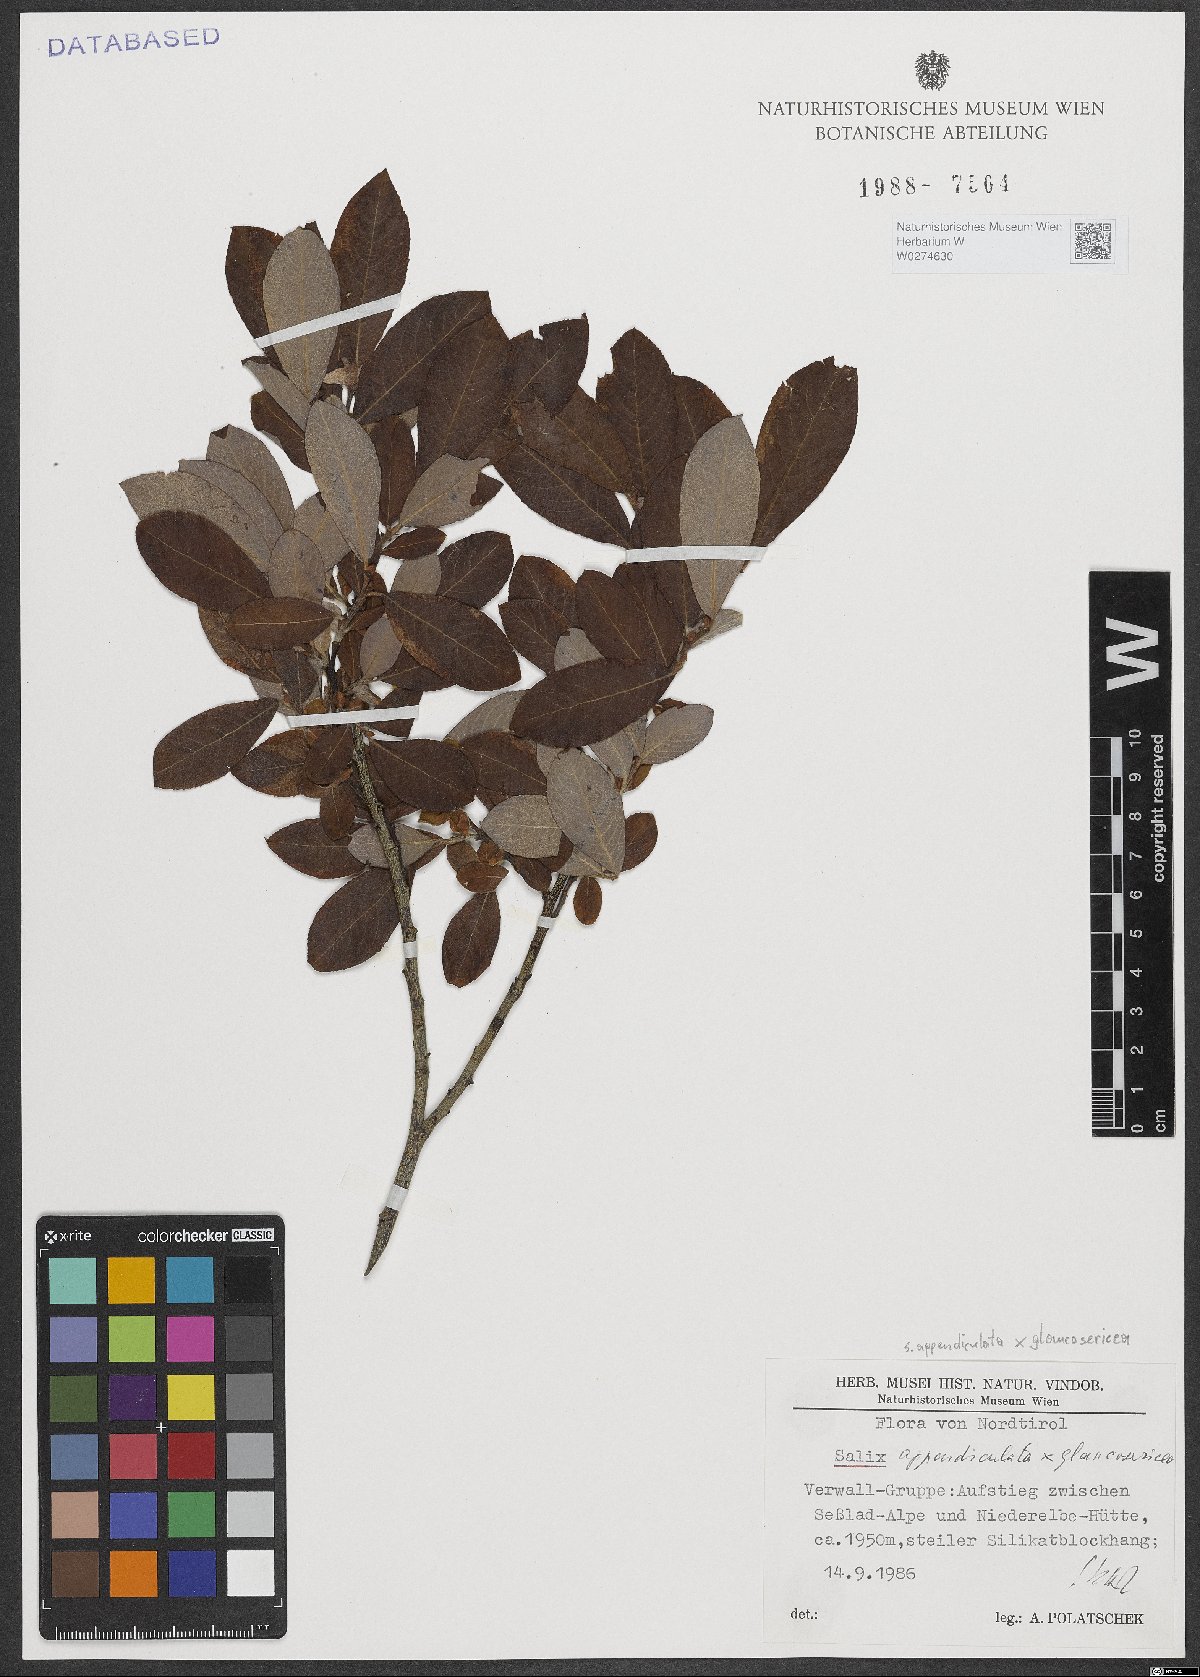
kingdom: Plantae
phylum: Tracheophyta
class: Magnoliopsida
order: Malpighiales
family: Salicaceae
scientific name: Salicaceae
